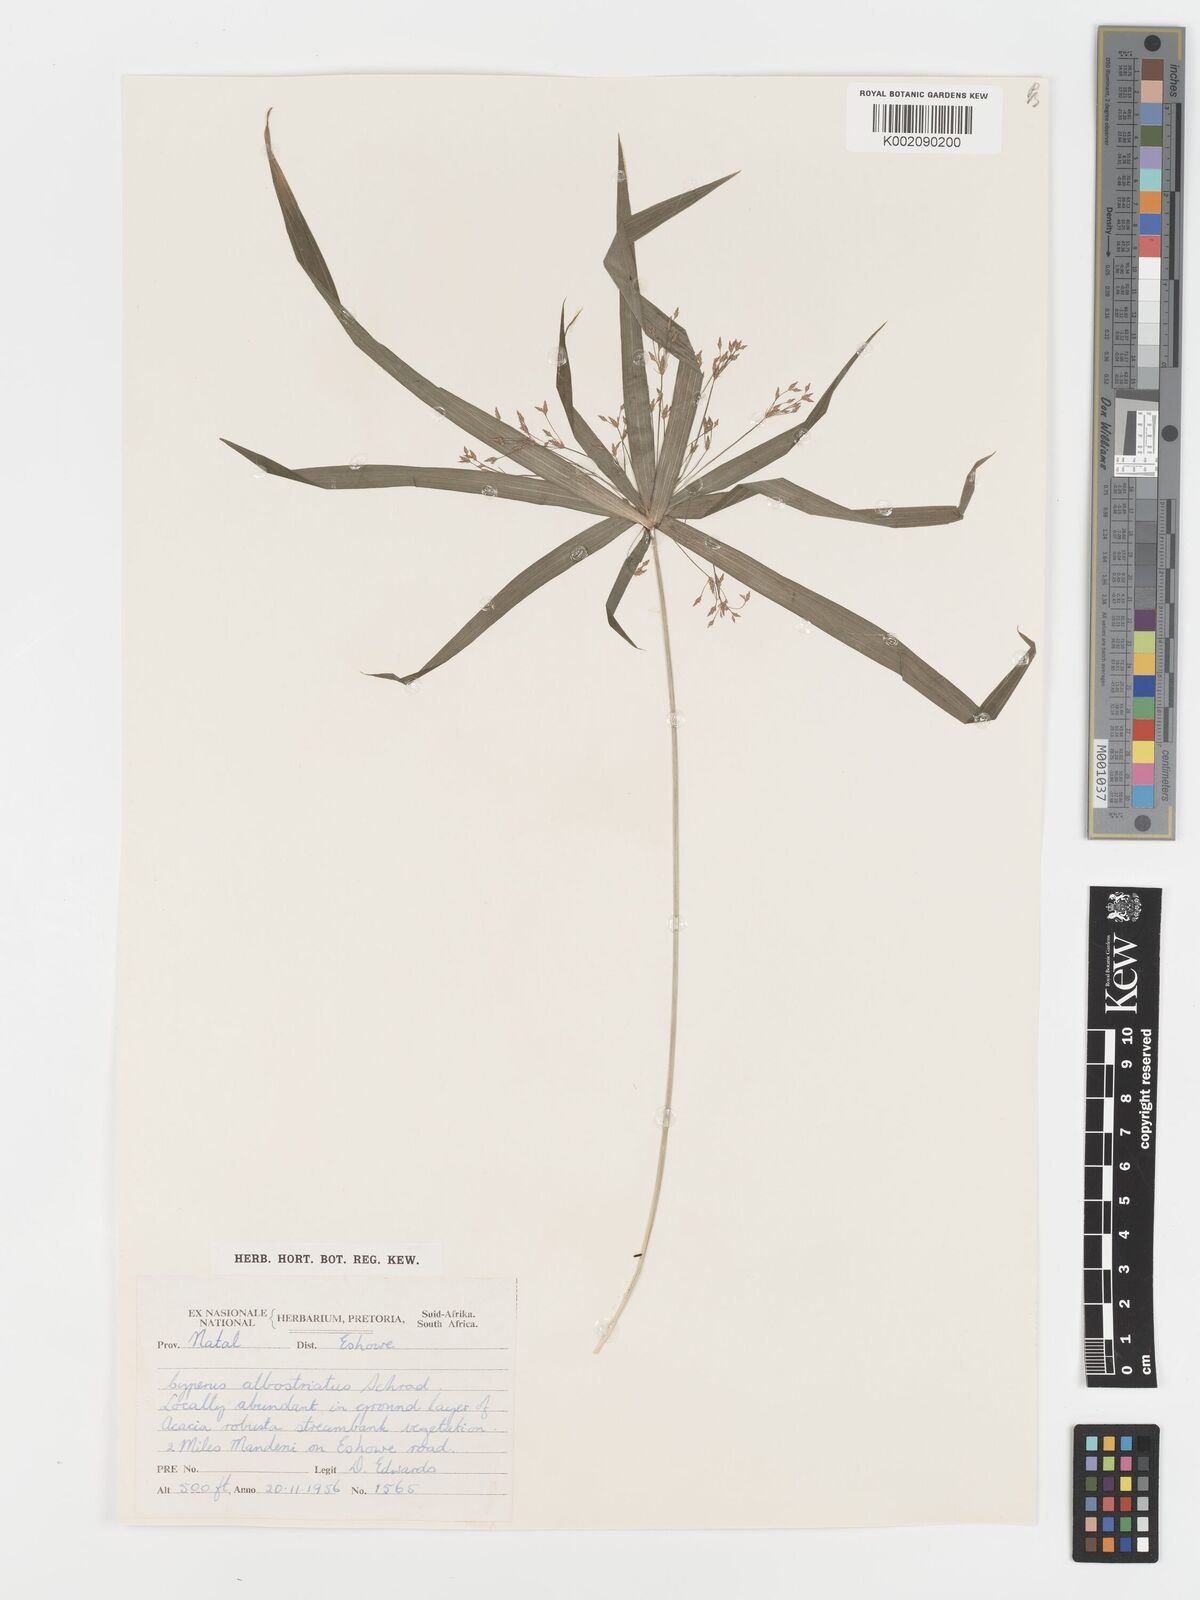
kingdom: Plantae
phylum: Tracheophyta
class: Liliopsida
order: Poales
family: Cyperaceae
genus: Cyperus
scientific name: Cyperus albostriatus
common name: Dwarf umbrella-grass
